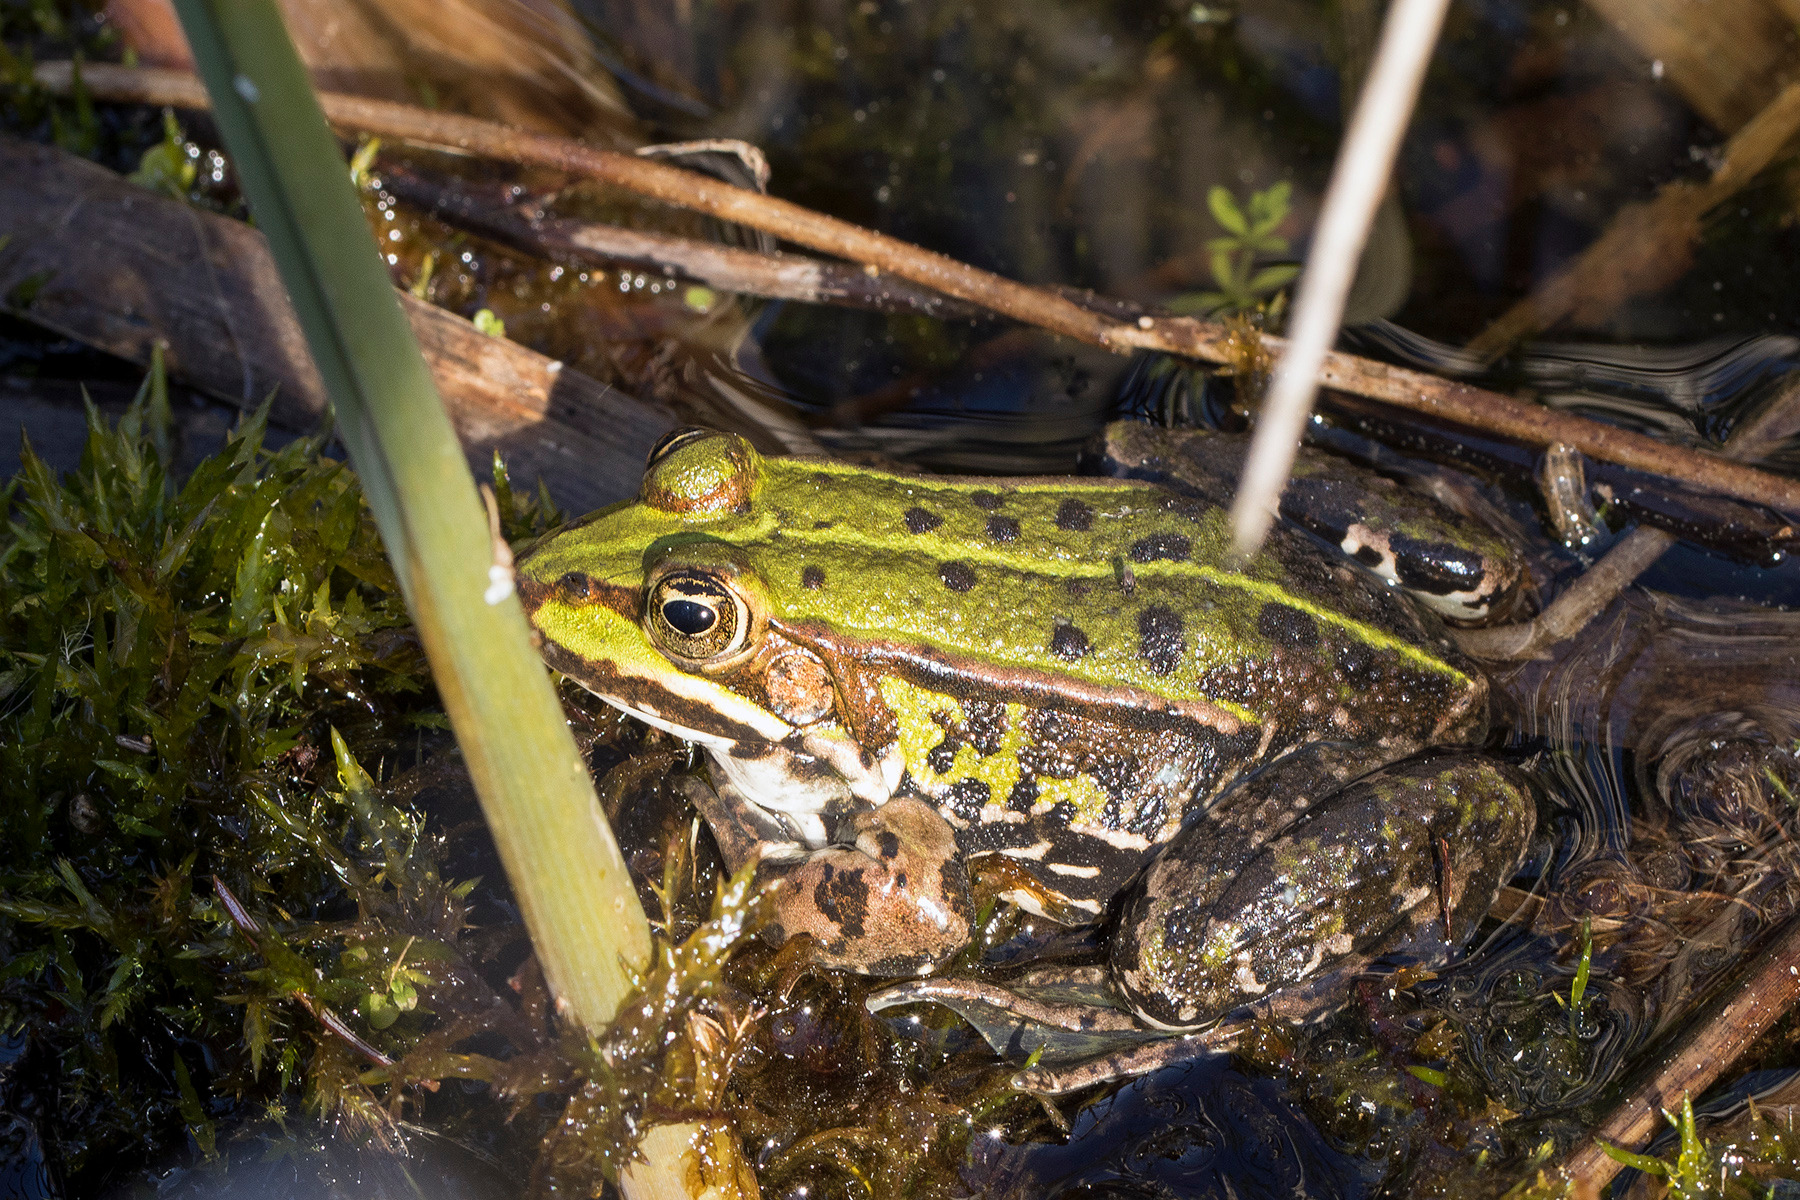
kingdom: Animalia
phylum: Chordata
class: Amphibia
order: Anura
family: Ranidae
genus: Pelophylax
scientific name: Pelophylax lessonae
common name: Grøn frø
